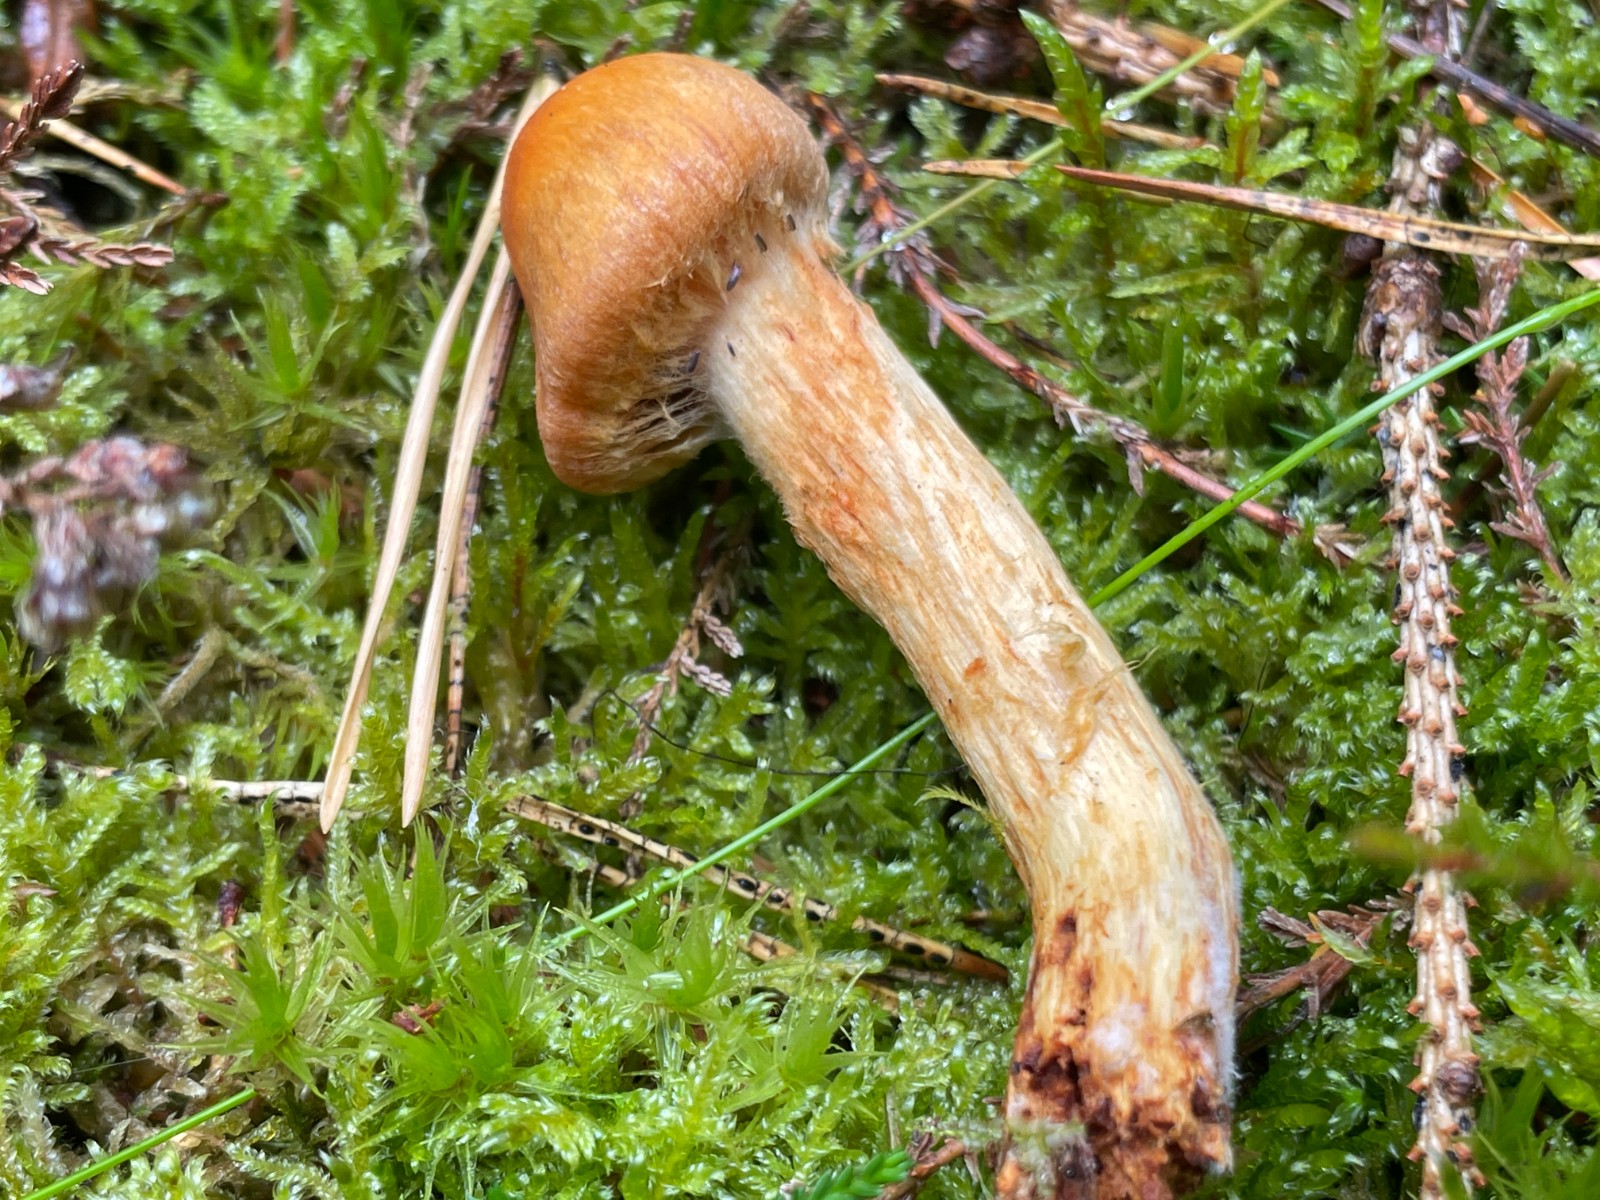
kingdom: Fungi
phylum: Basidiomycota
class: Agaricomycetes
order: Agaricales
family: Cortinariaceae
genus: Aureonarius
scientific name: Aureonarius limonius
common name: orangegul slørhat
